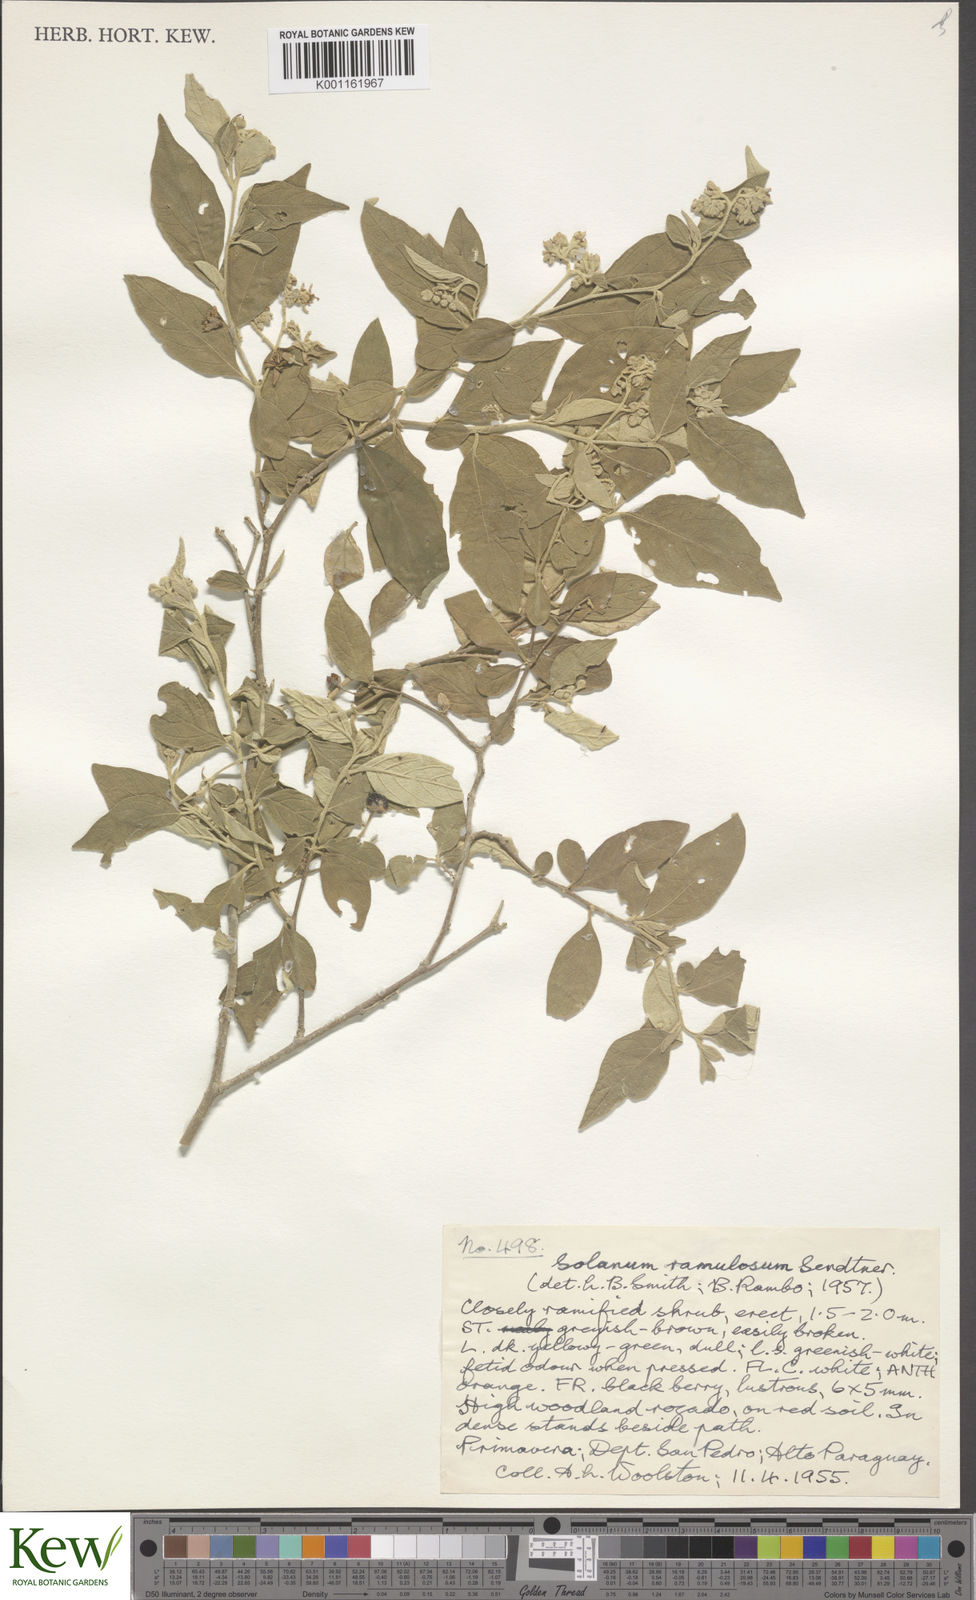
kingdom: Plantae
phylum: Tracheophyta
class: Magnoliopsida
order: Solanales
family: Solanaceae
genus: Solanum
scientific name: Solanum ramulosum
